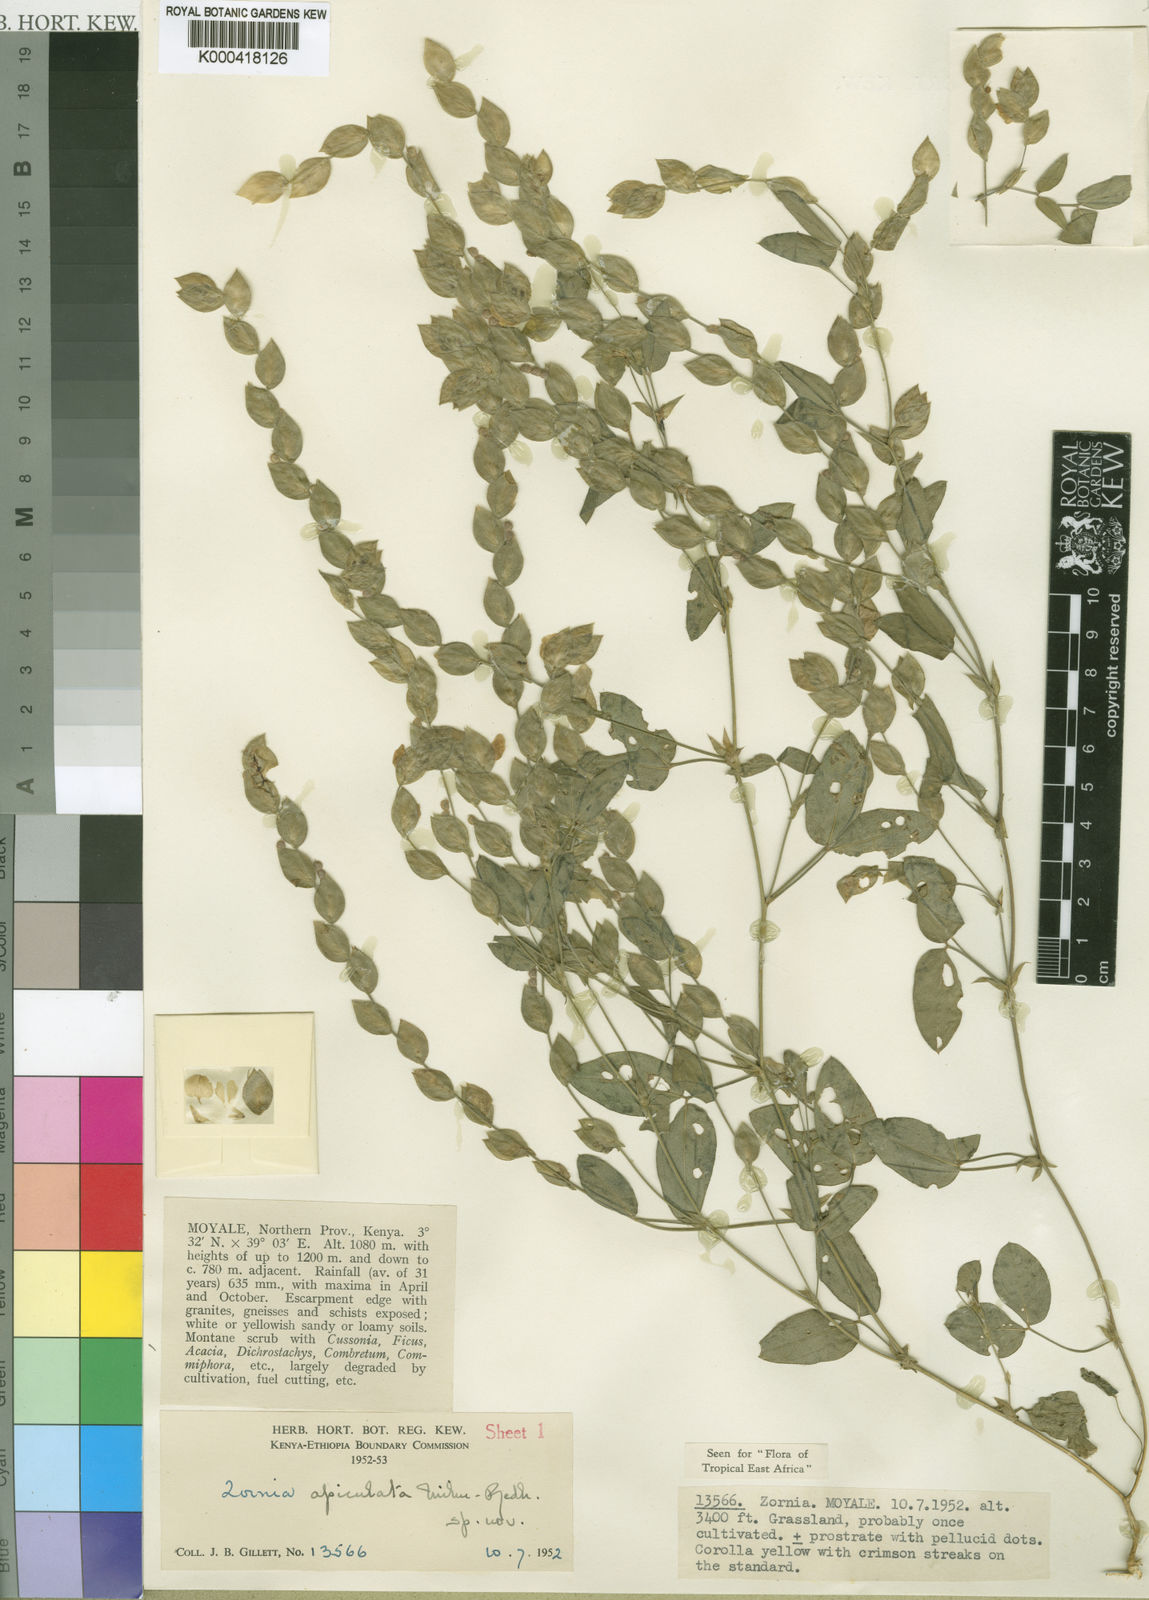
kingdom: Plantae
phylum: Tracheophyta
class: Magnoliopsida
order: Fabales
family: Fabaceae
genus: Zornia
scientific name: Zornia apiculata
